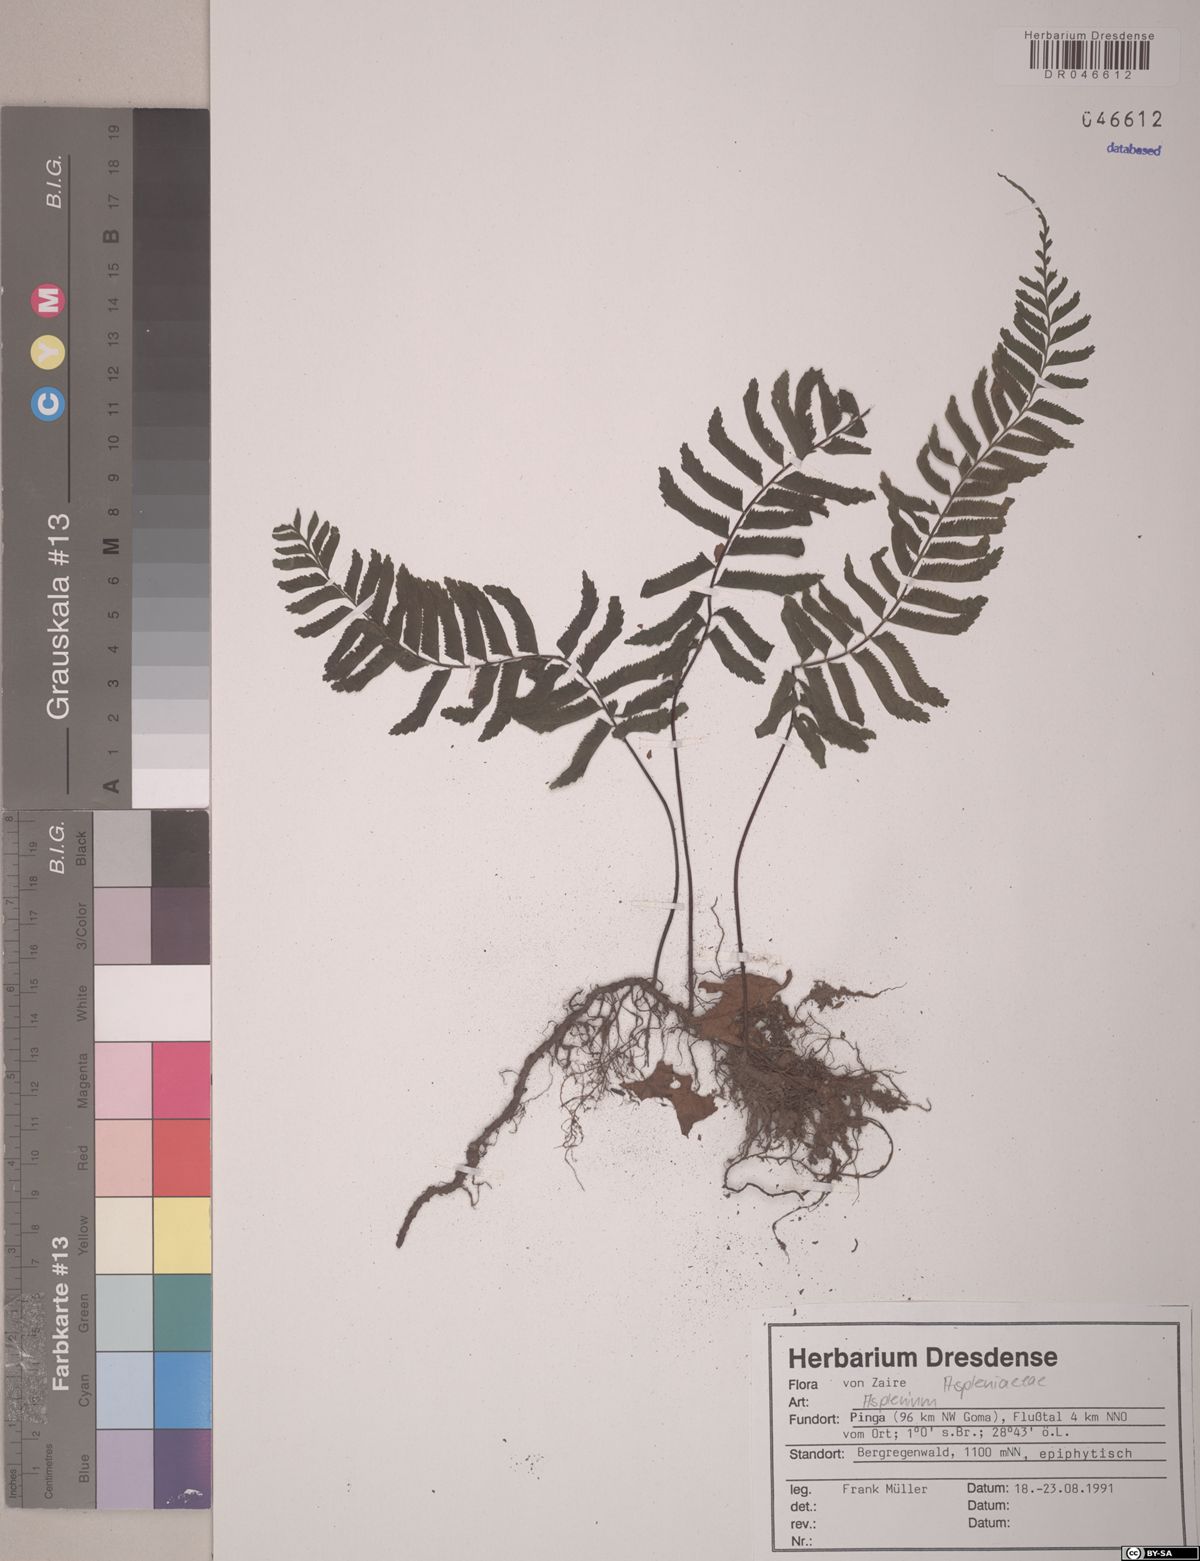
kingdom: Plantae
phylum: Tracheophyta
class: Polypodiopsida
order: Polypodiales
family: Aspleniaceae
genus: Asplenium
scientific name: Asplenium
